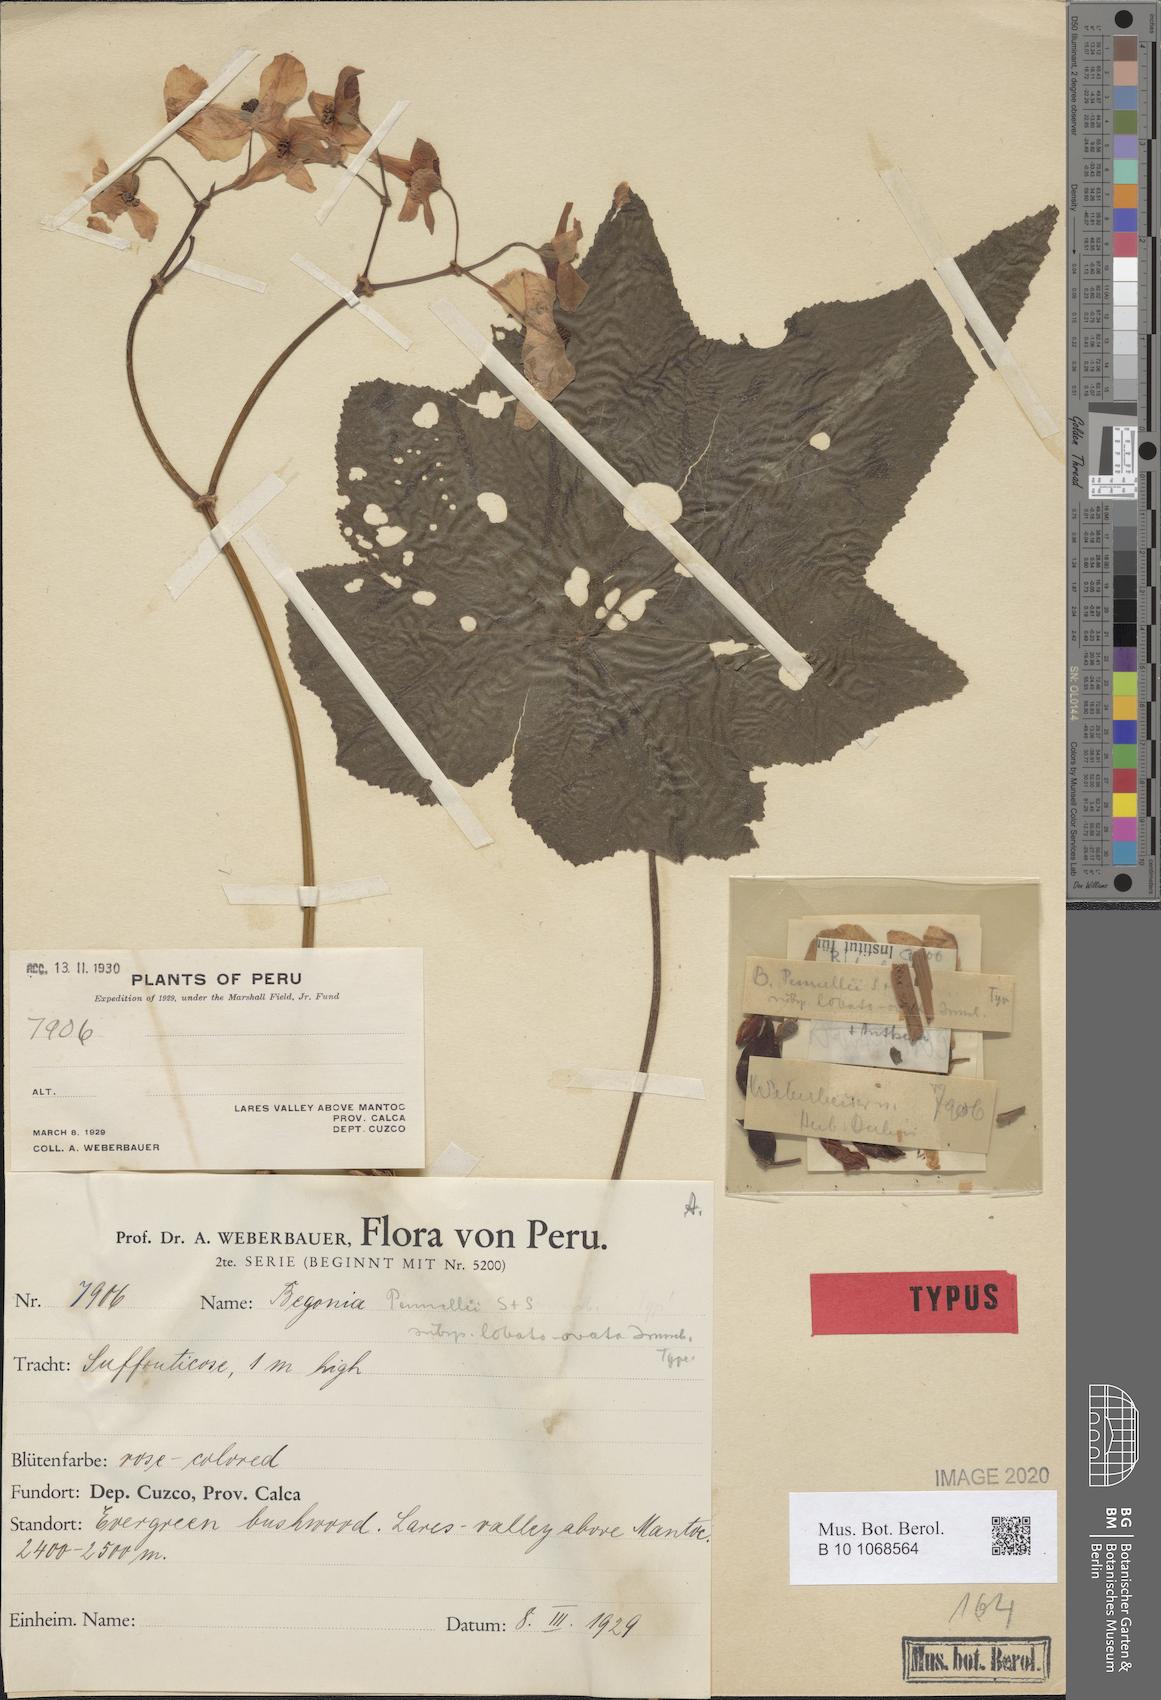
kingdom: Plantae
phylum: Tracheophyta
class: Magnoliopsida
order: Cucurbitales
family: Begoniaceae
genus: Begonia
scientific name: Begonia acerifolia
